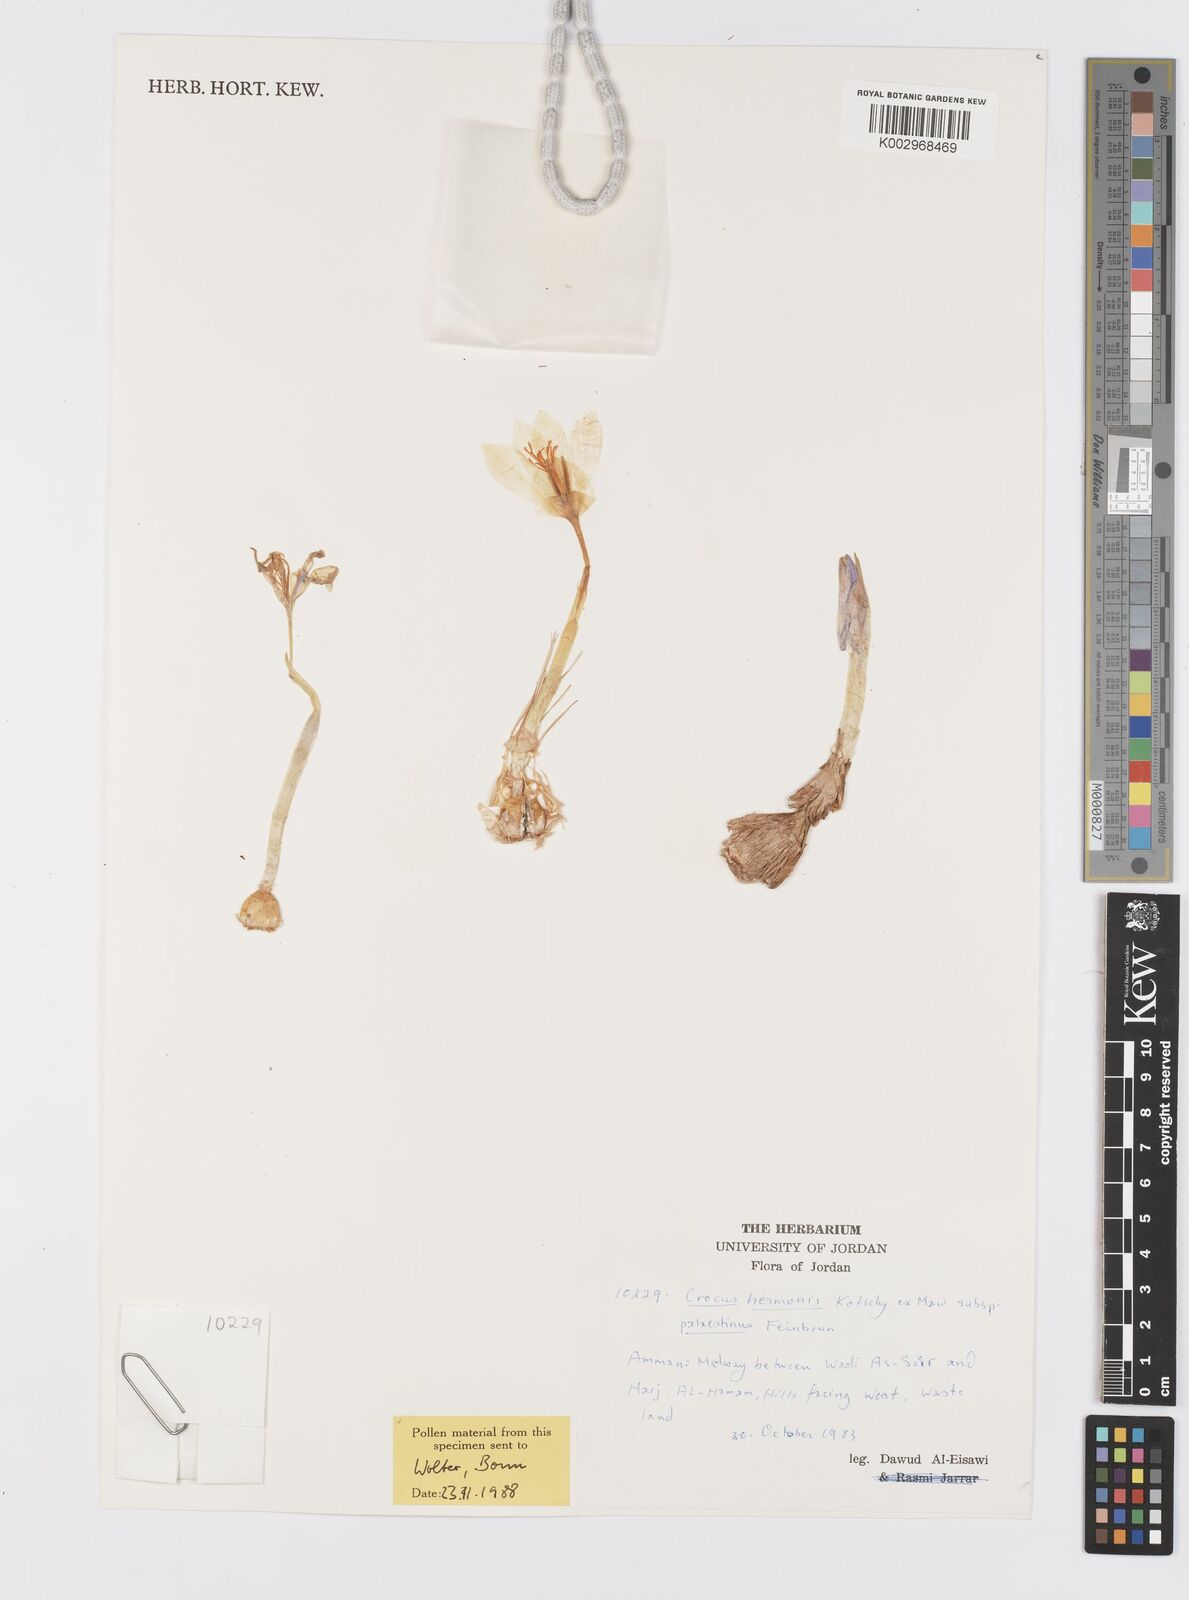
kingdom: Plantae
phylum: Tracheophyta
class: Liliopsida
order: Asparagales
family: Iridaceae
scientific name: Iridaceae
